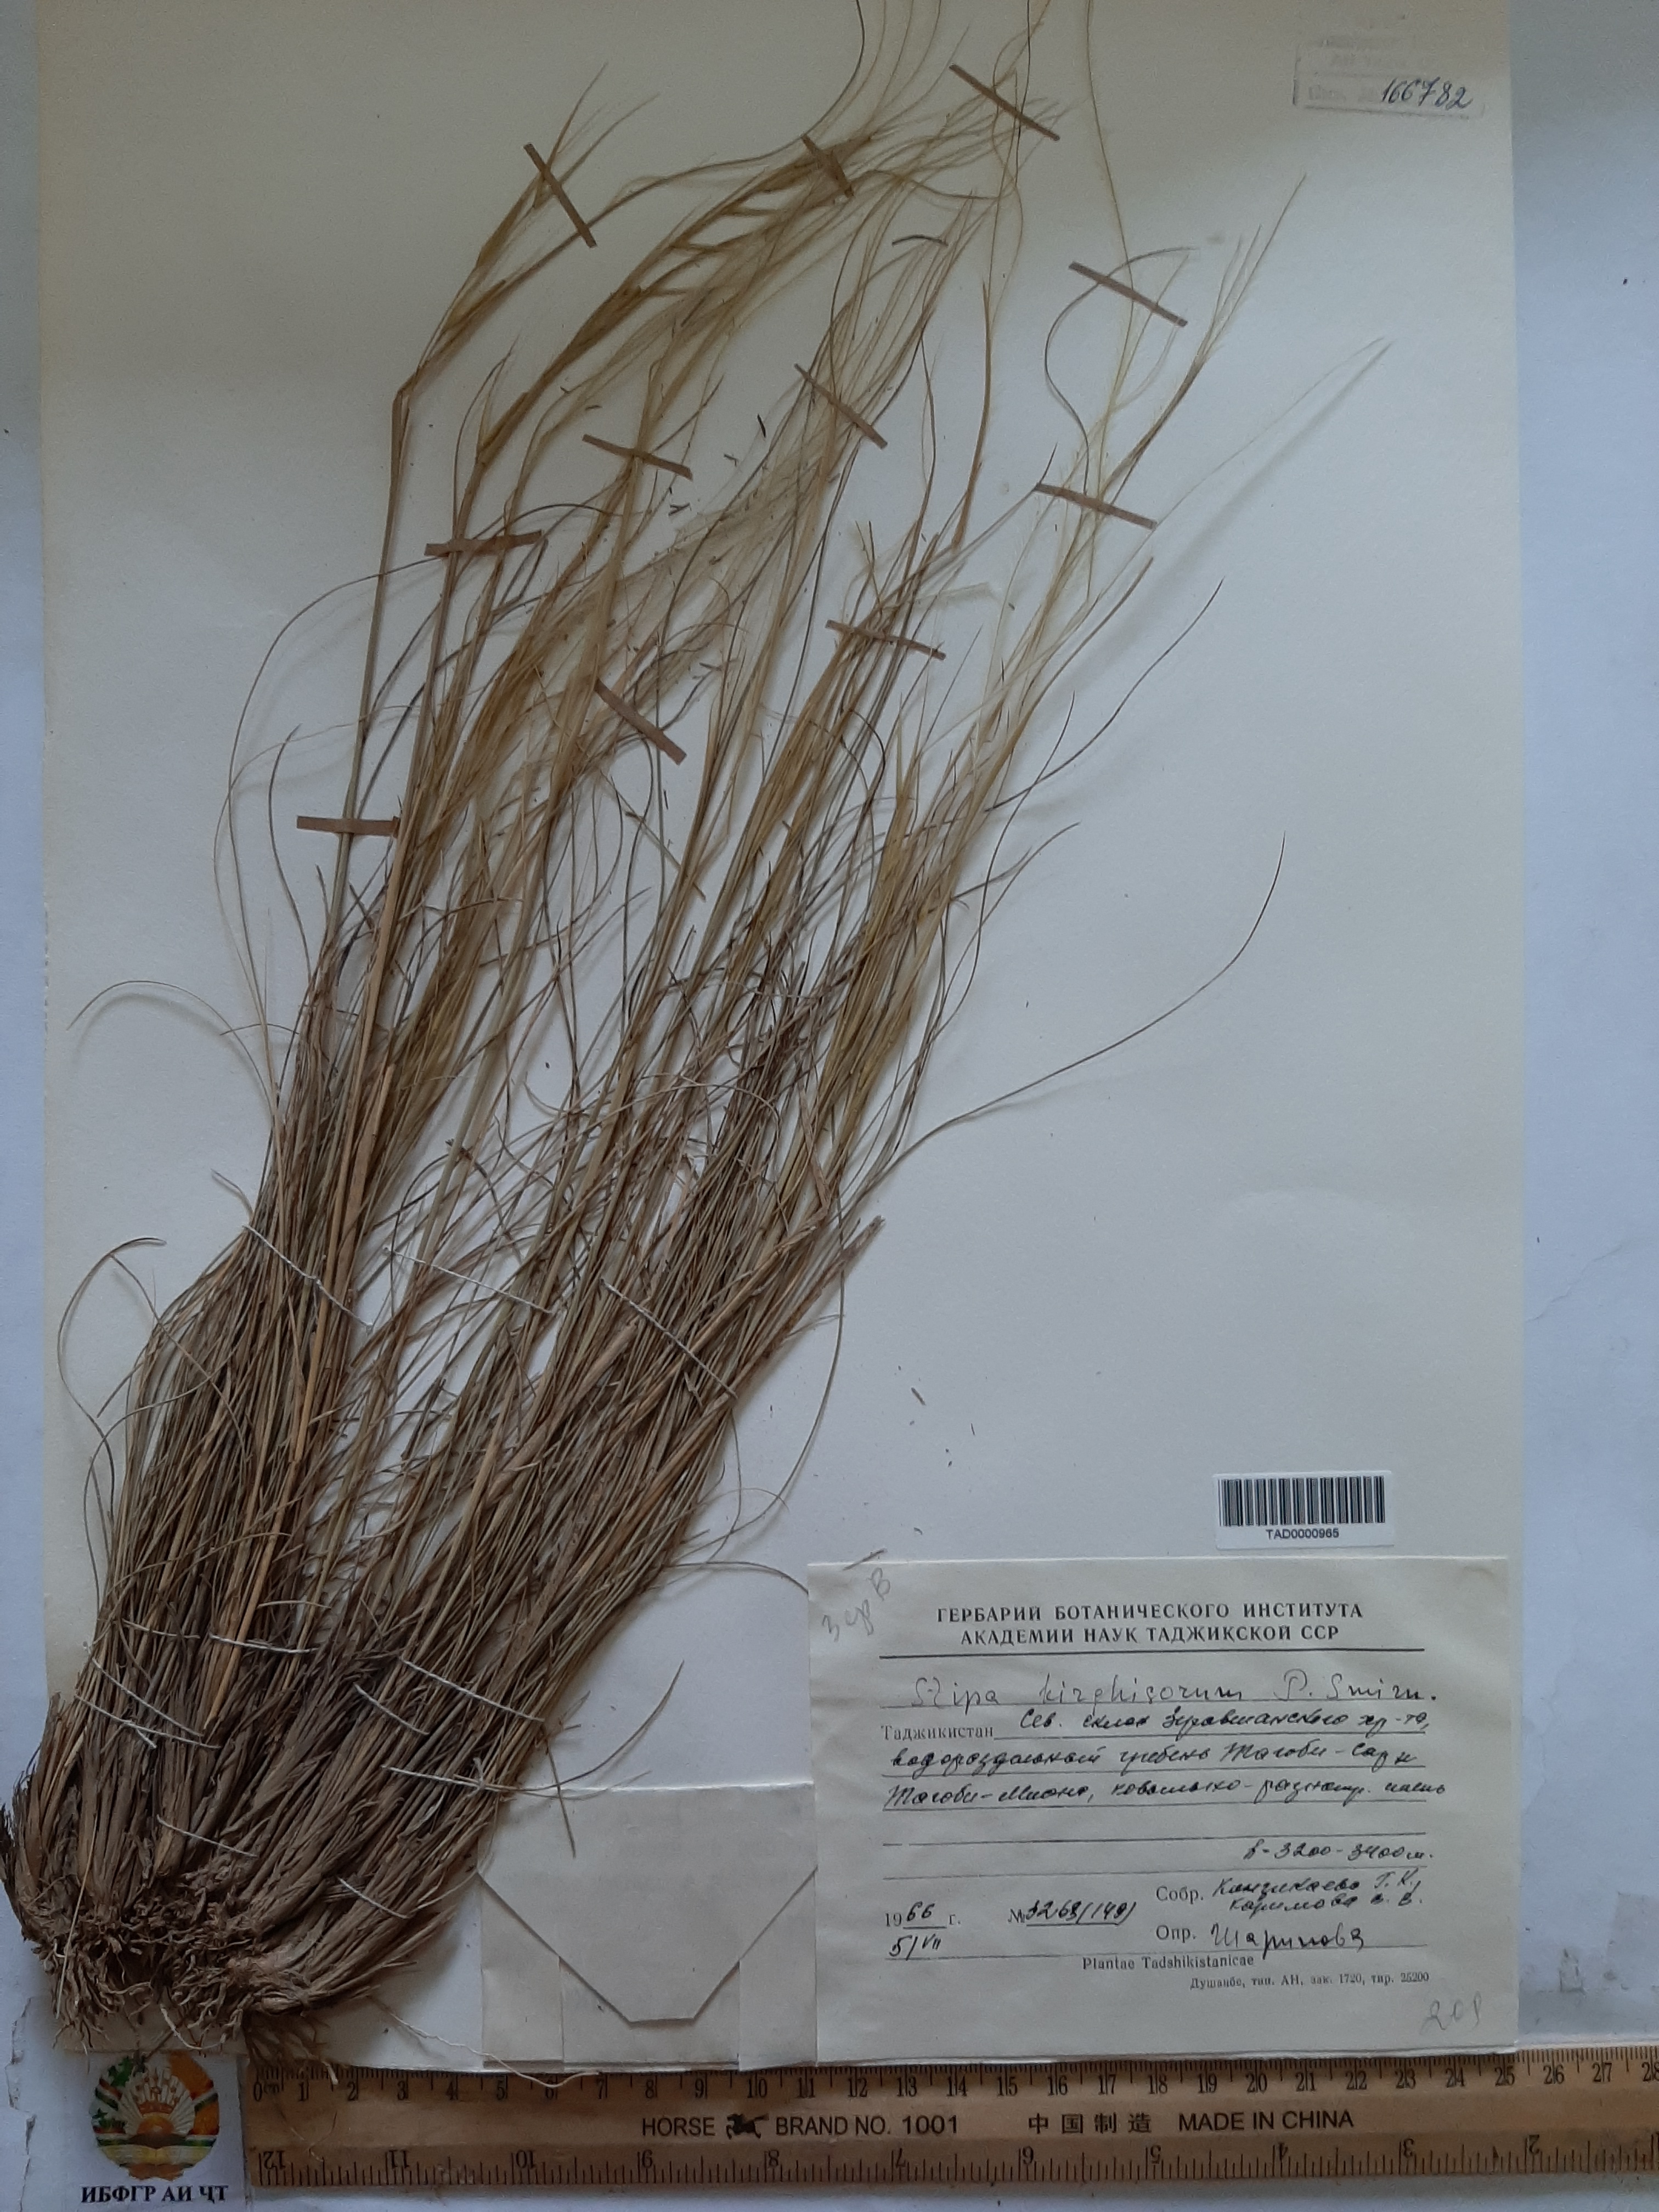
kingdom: Plantae
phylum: Tracheophyta
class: Liliopsida
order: Poales
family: Poaceae
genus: Stipa
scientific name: Stipa kirghisorum
